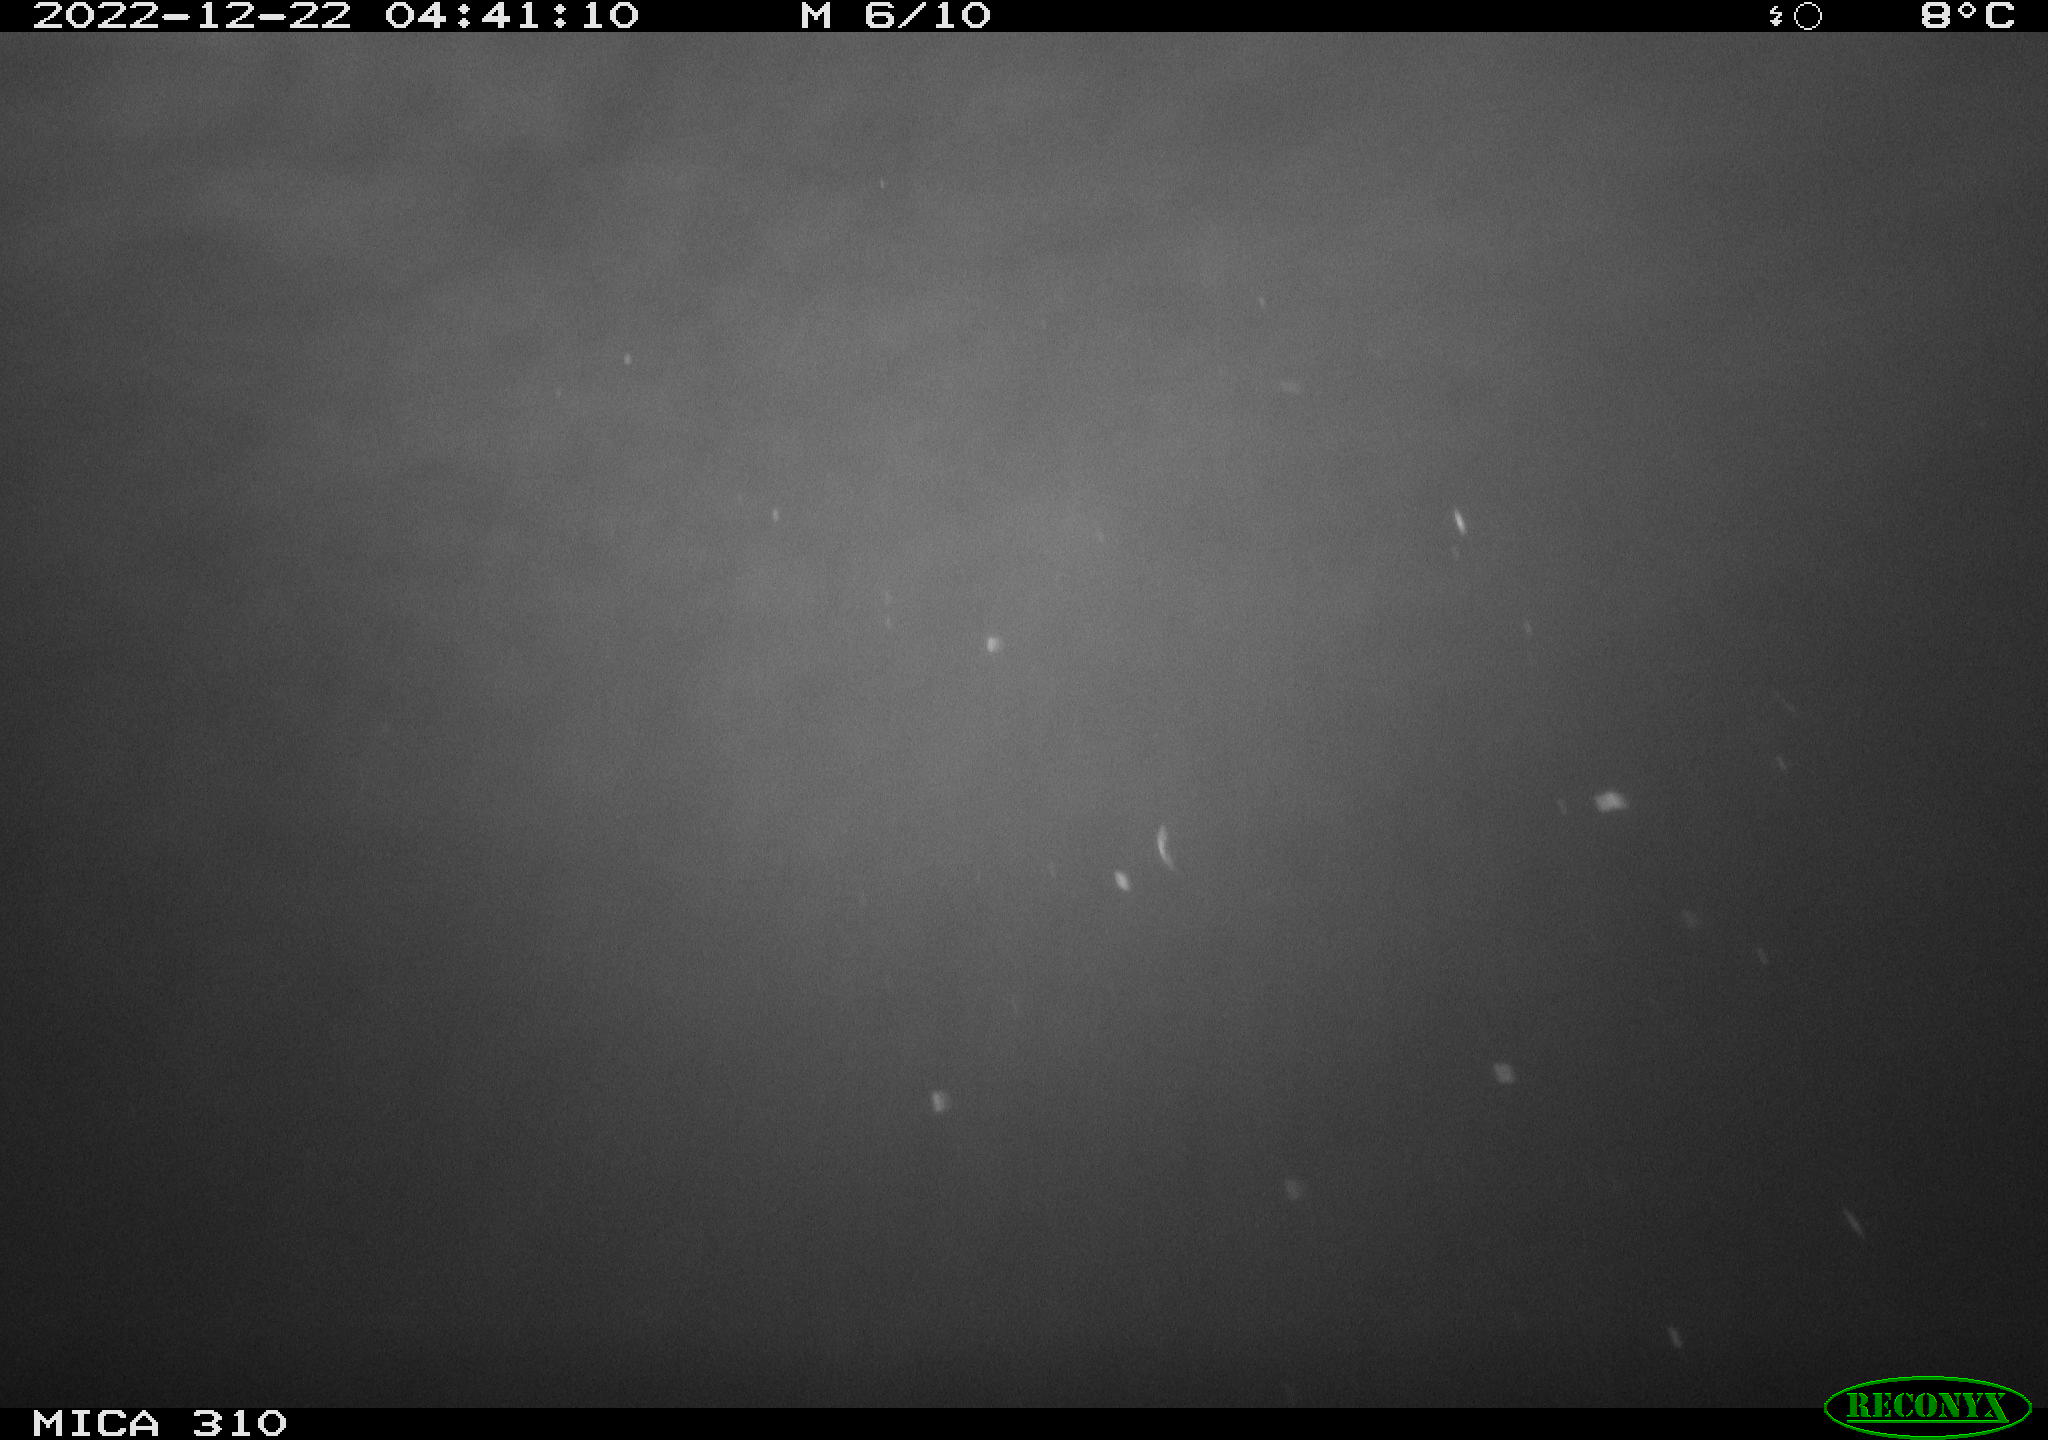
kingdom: Animalia
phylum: Chordata
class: Mammalia
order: Rodentia
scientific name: Rodentia
